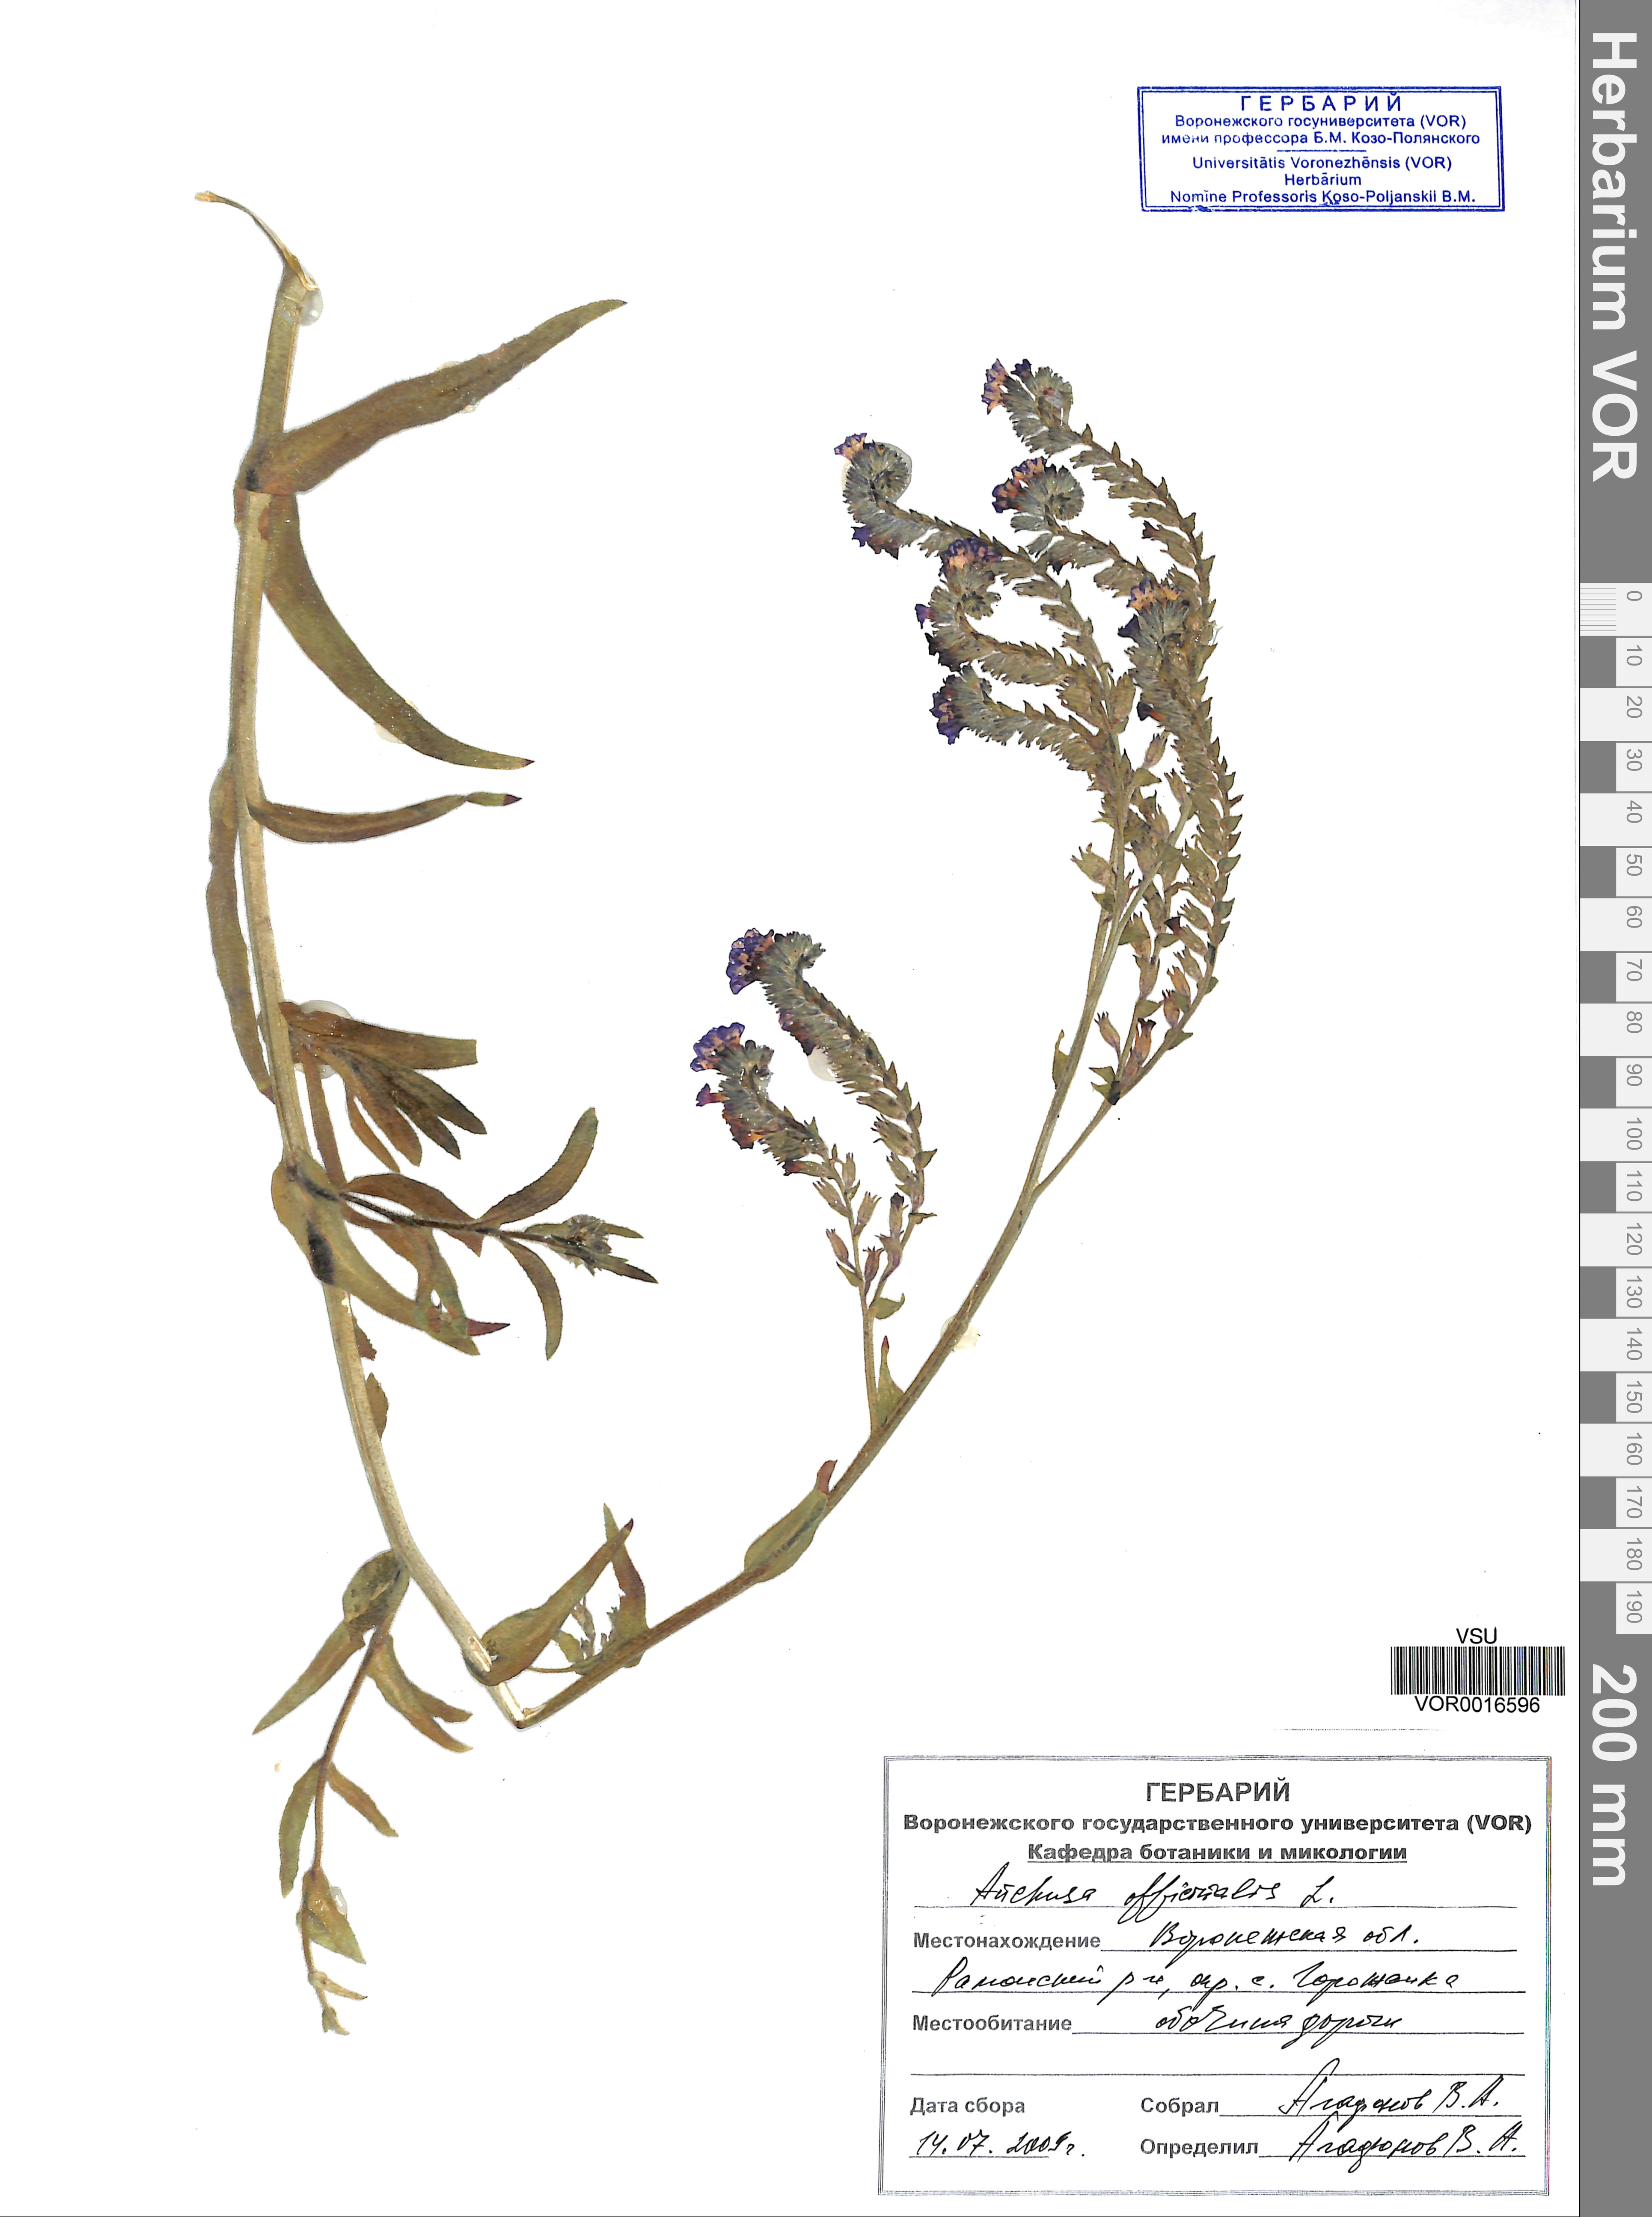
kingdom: Plantae
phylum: Tracheophyta
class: Magnoliopsida
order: Boraginales
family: Boraginaceae
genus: Anchusa
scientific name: Anchusa officinalis
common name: Alkanet
